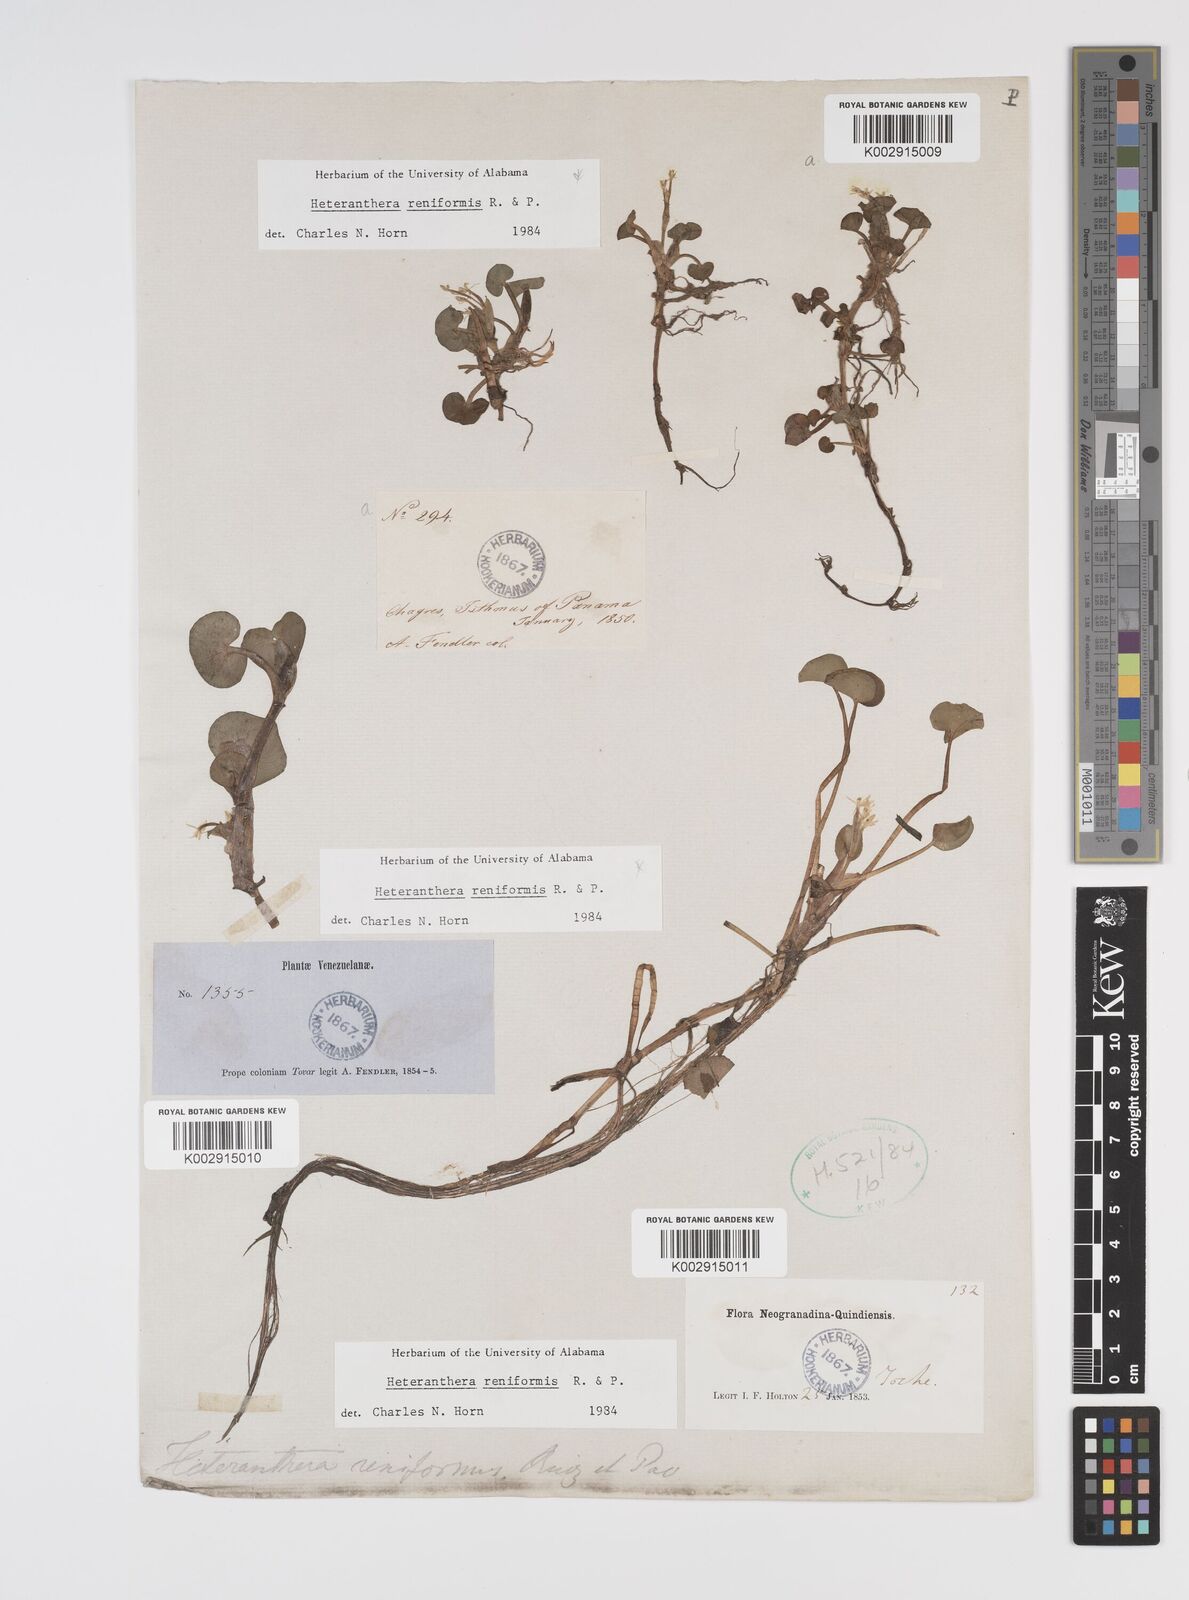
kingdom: Plantae
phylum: Tracheophyta
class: Liliopsida
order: Commelinales
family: Pontederiaceae
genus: Heteranthera
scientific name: Heteranthera reniformis
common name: Kidneyleaf mudplantain
